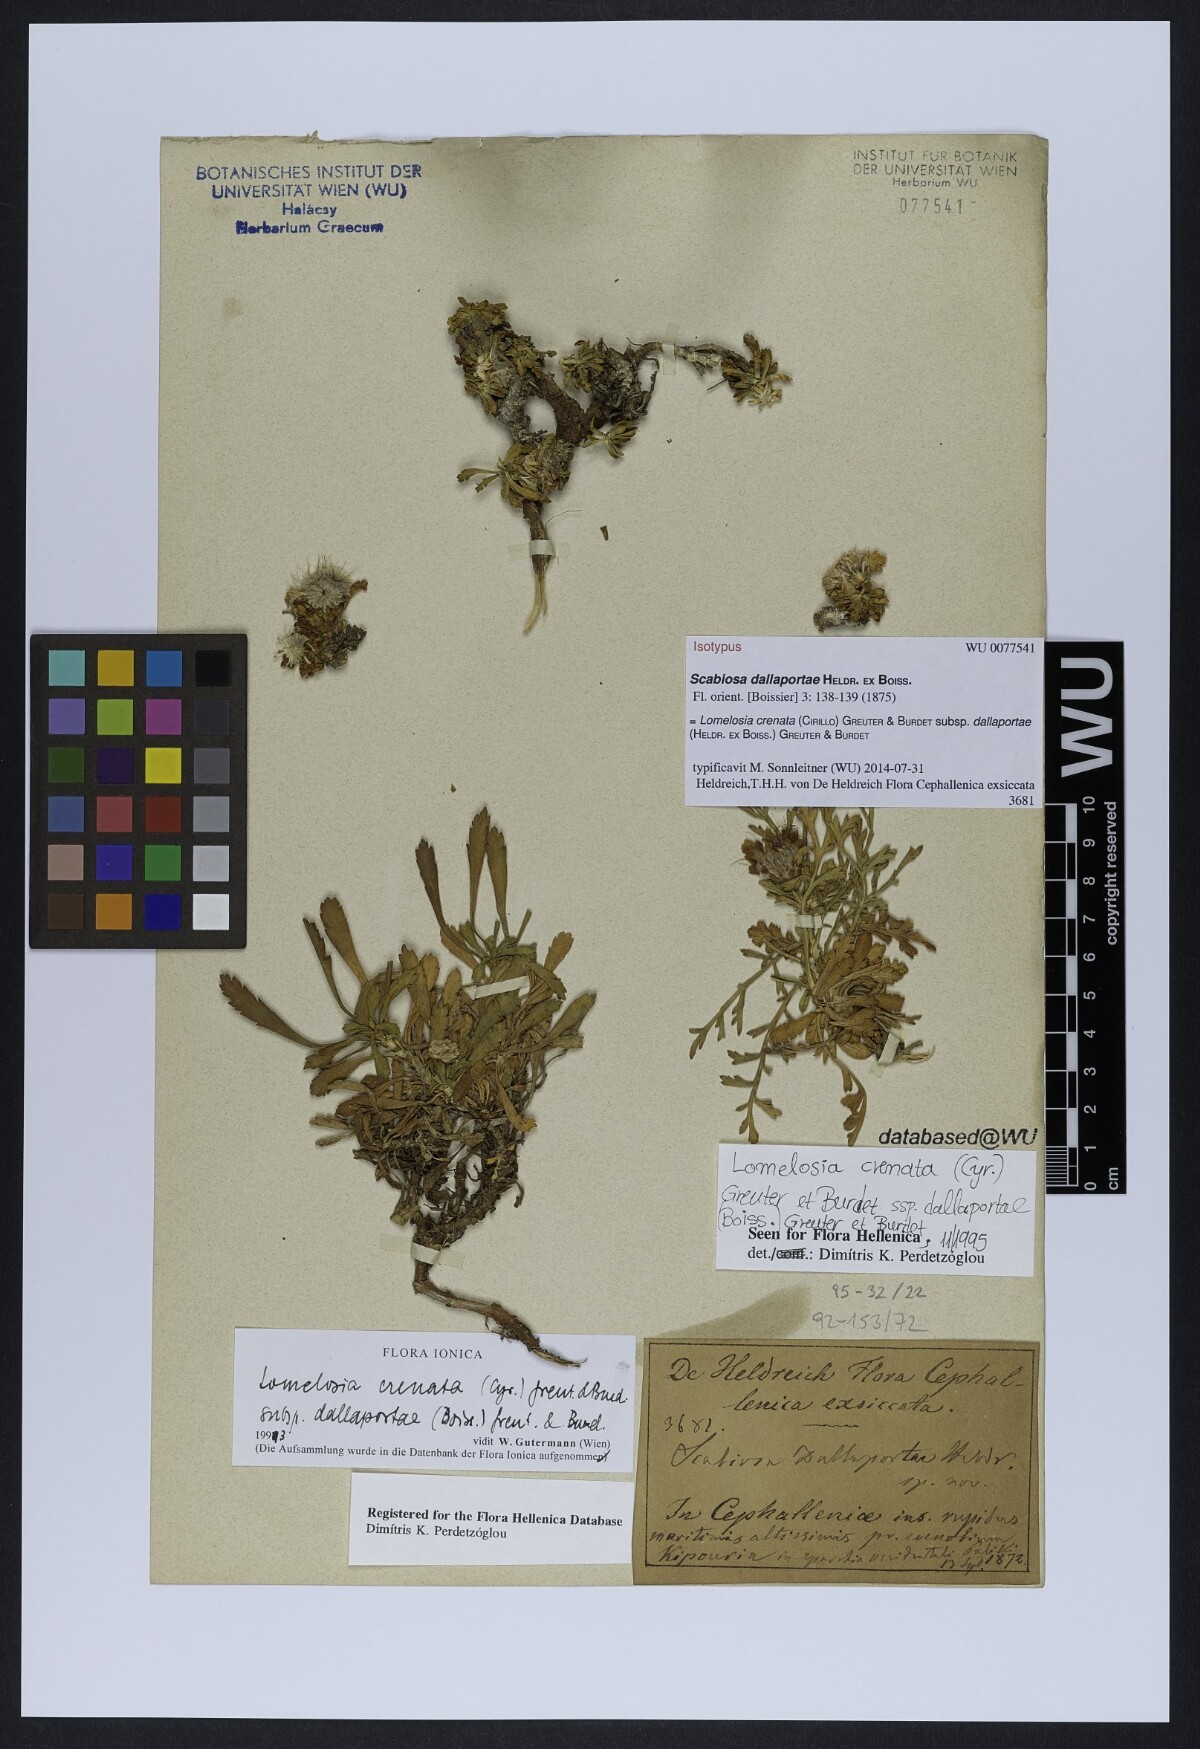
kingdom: Plantae
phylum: Tracheophyta
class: Magnoliopsida
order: Dipsacales
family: Caprifoliaceae
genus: Lomelosia
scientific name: Lomelosia crenata
